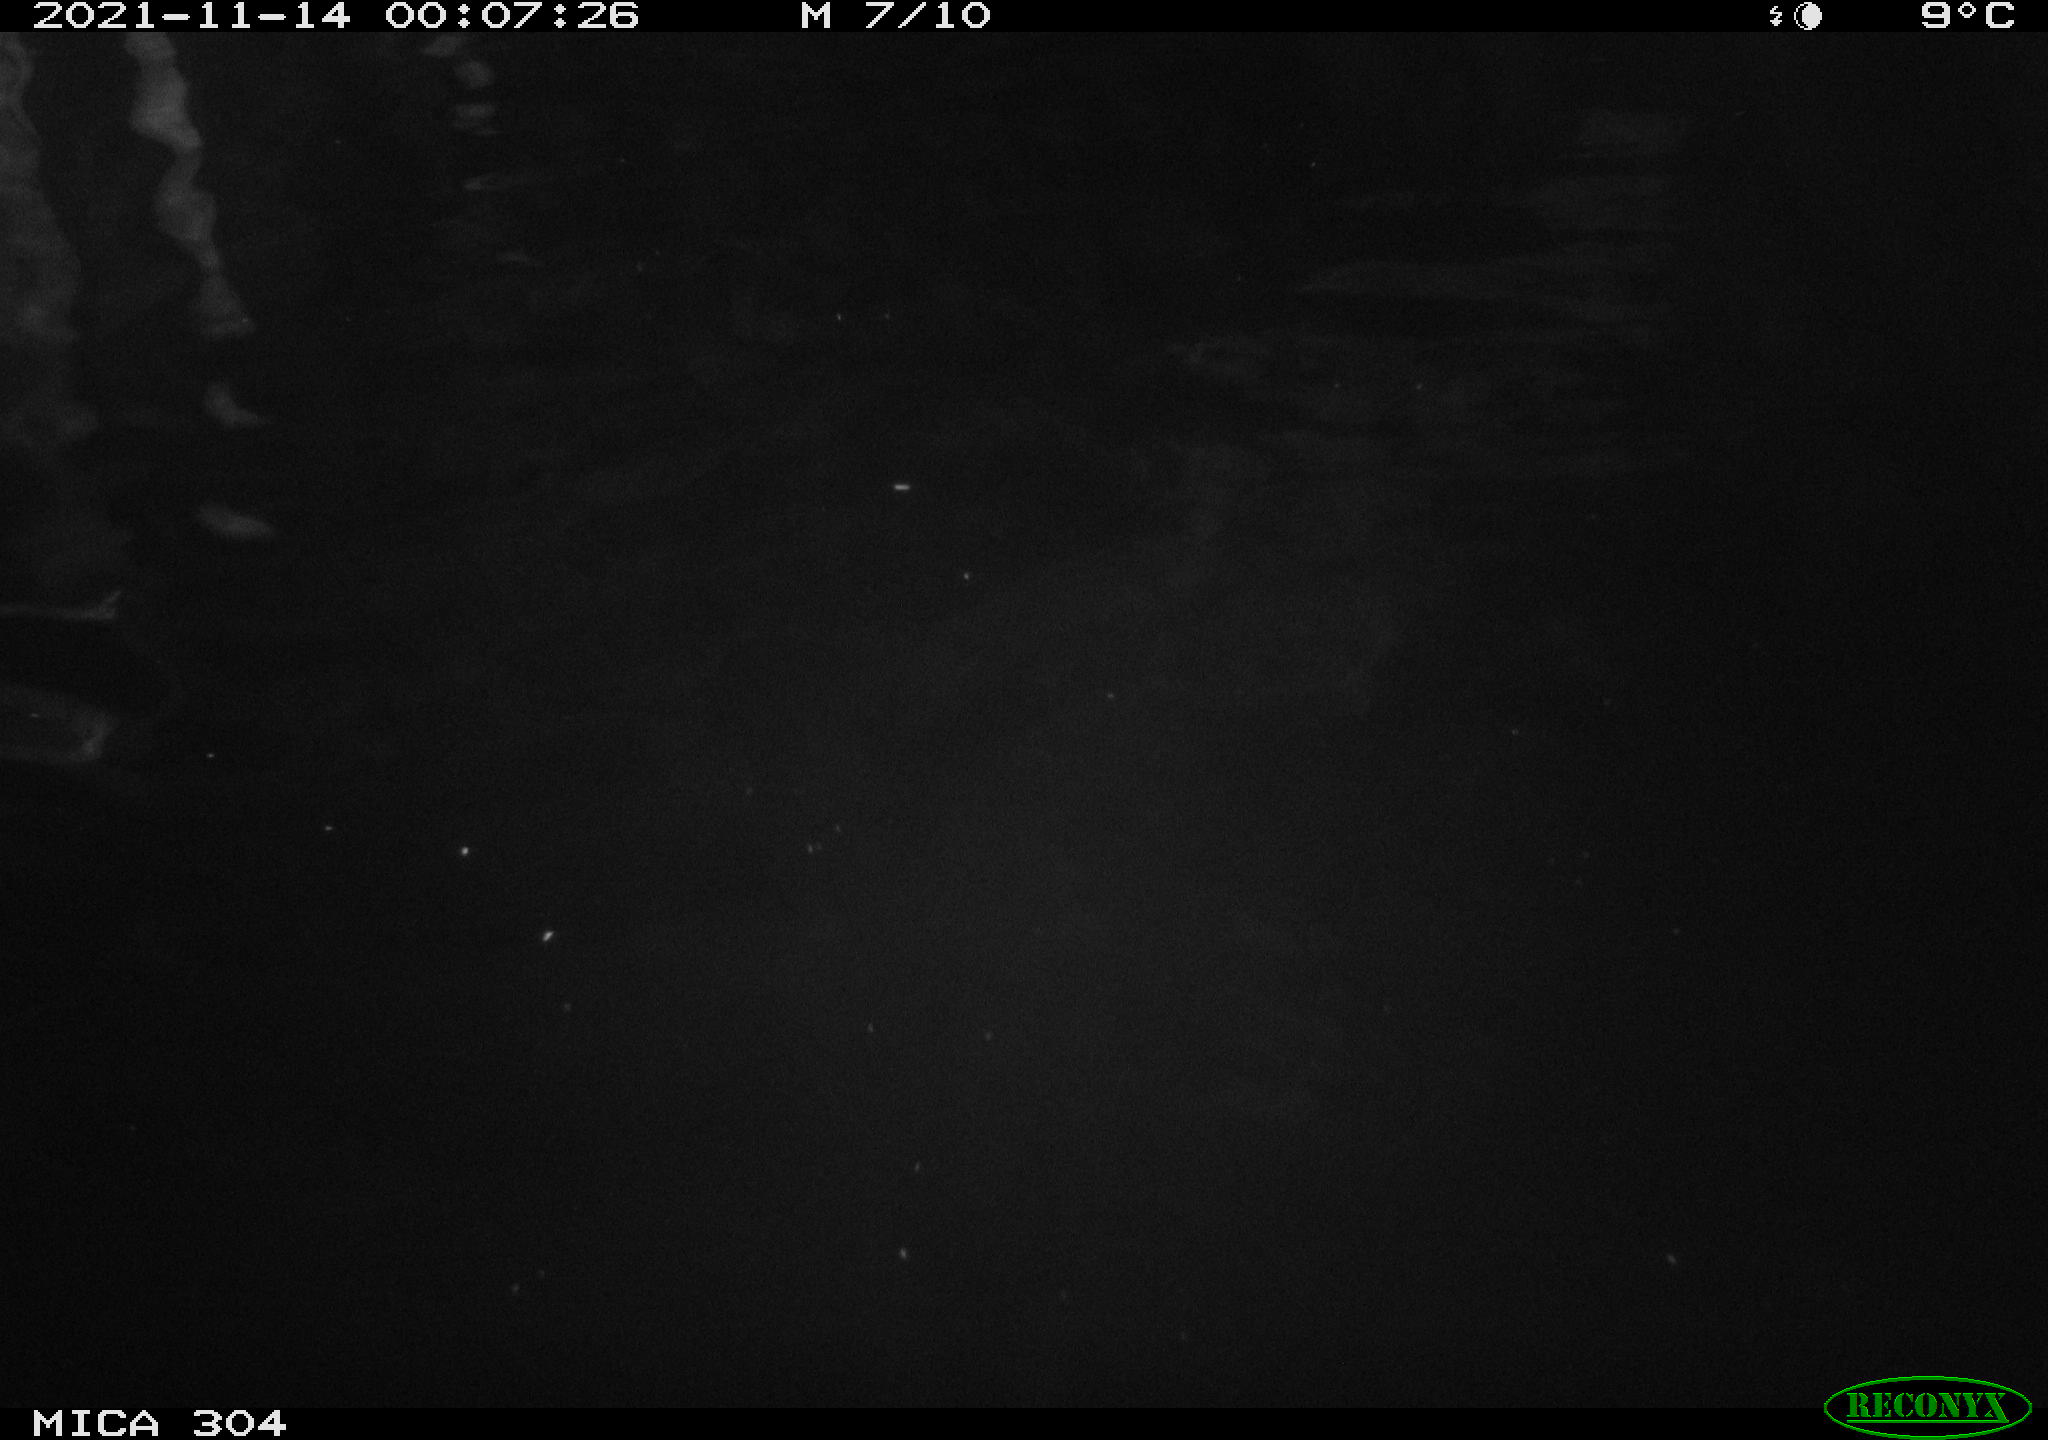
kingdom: Animalia
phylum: Chordata
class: Mammalia
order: Rodentia
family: Cricetidae
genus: Ondatra
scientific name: Ondatra zibethicus
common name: Muskrat
